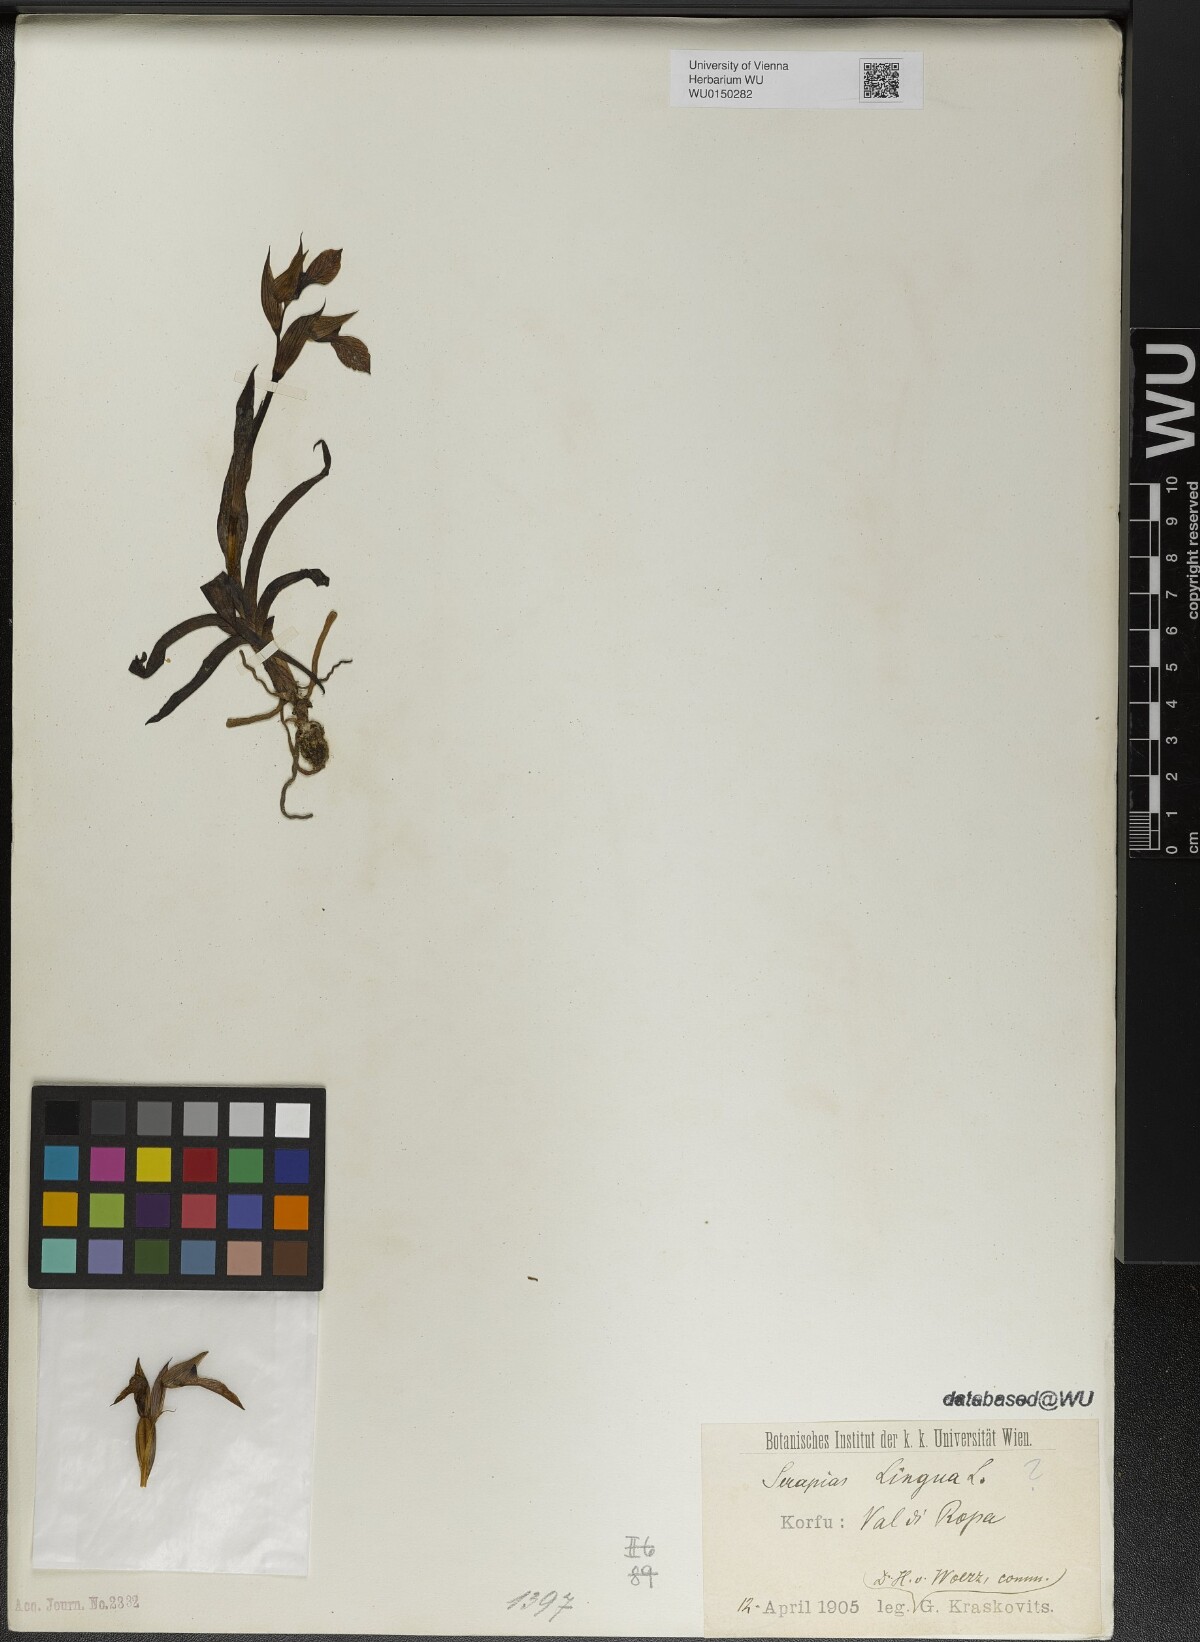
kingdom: Plantae
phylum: Tracheophyta
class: Liliopsida
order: Asparagales
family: Orchidaceae
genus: Serapias
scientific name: Serapias lingua
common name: Tongue-orchid
